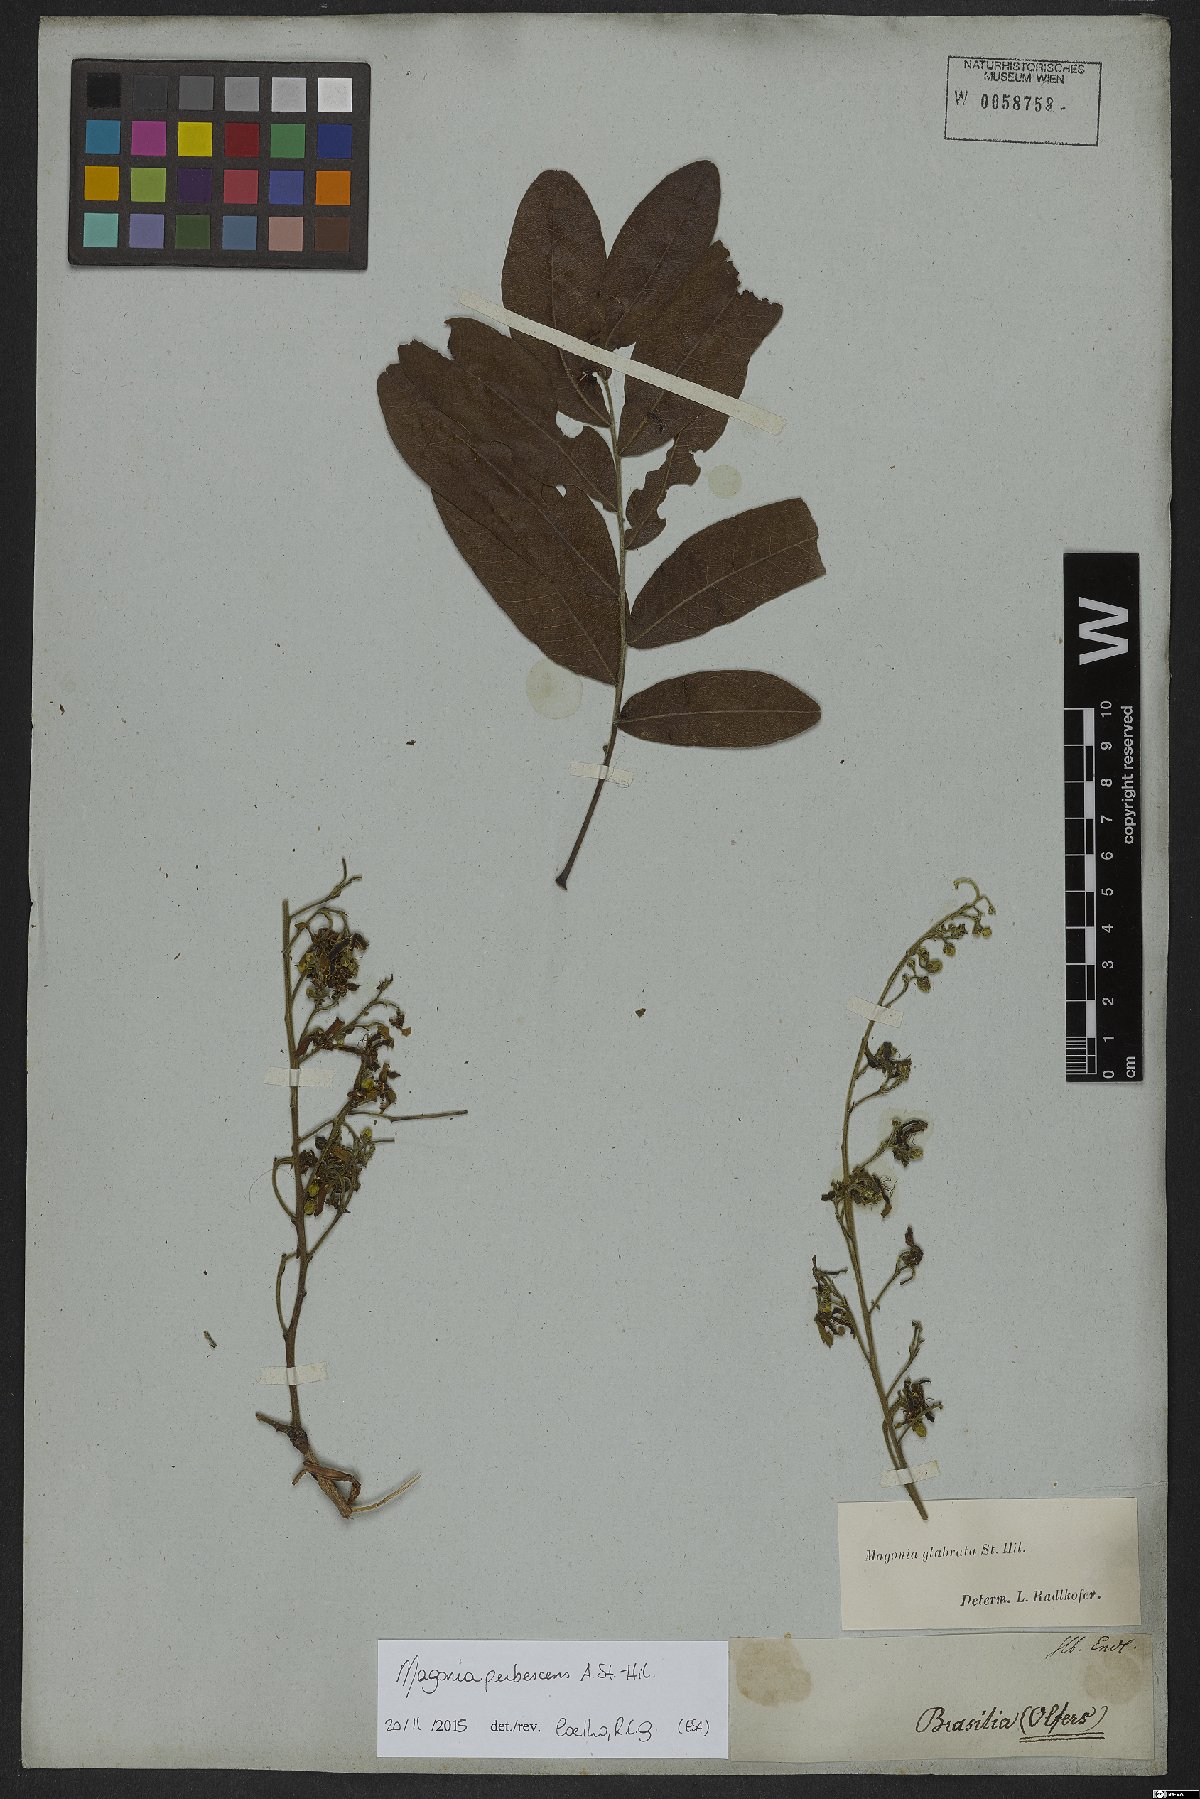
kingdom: Plantae
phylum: Tracheophyta
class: Magnoliopsida
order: Sapindales
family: Sapindaceae
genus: Magonia
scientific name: Magonia pubescens
